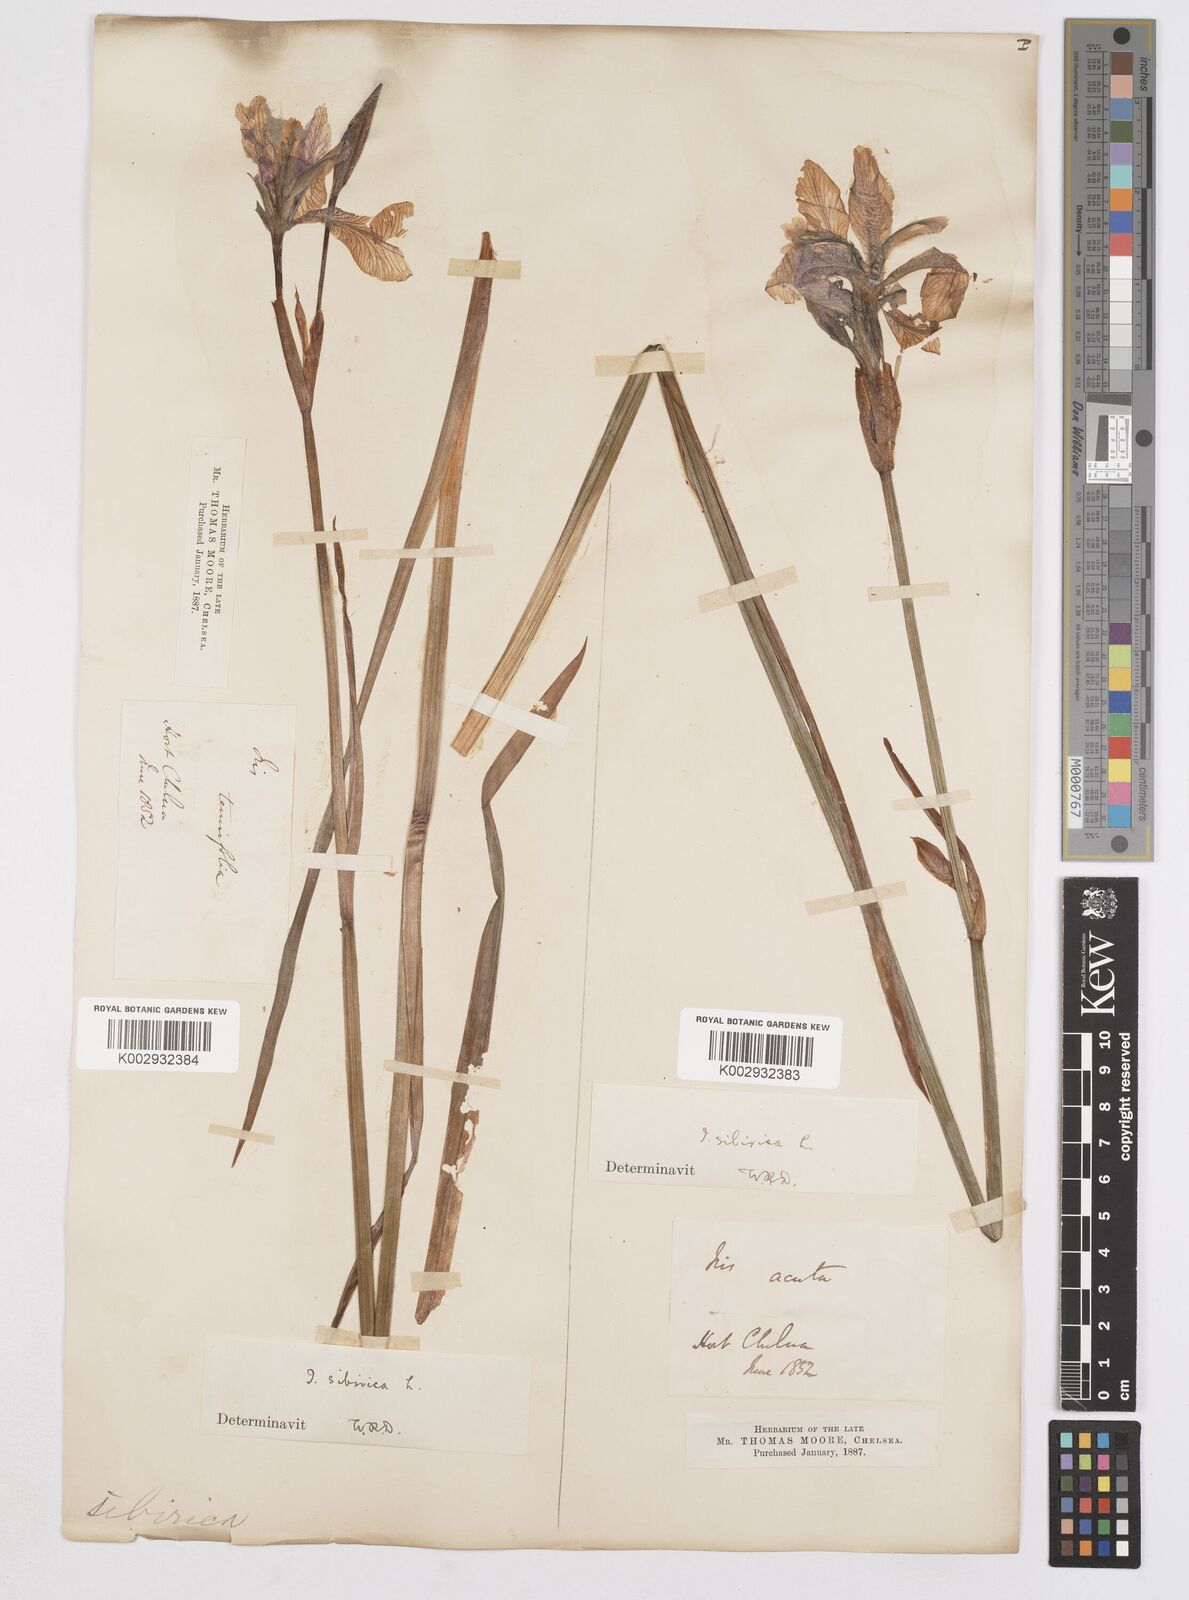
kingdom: Plantae
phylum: Tracheophyta
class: Liliopsida
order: Asparagales
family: Iridaceae
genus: Iris
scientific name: Iris sibirica
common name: Siberian iris
